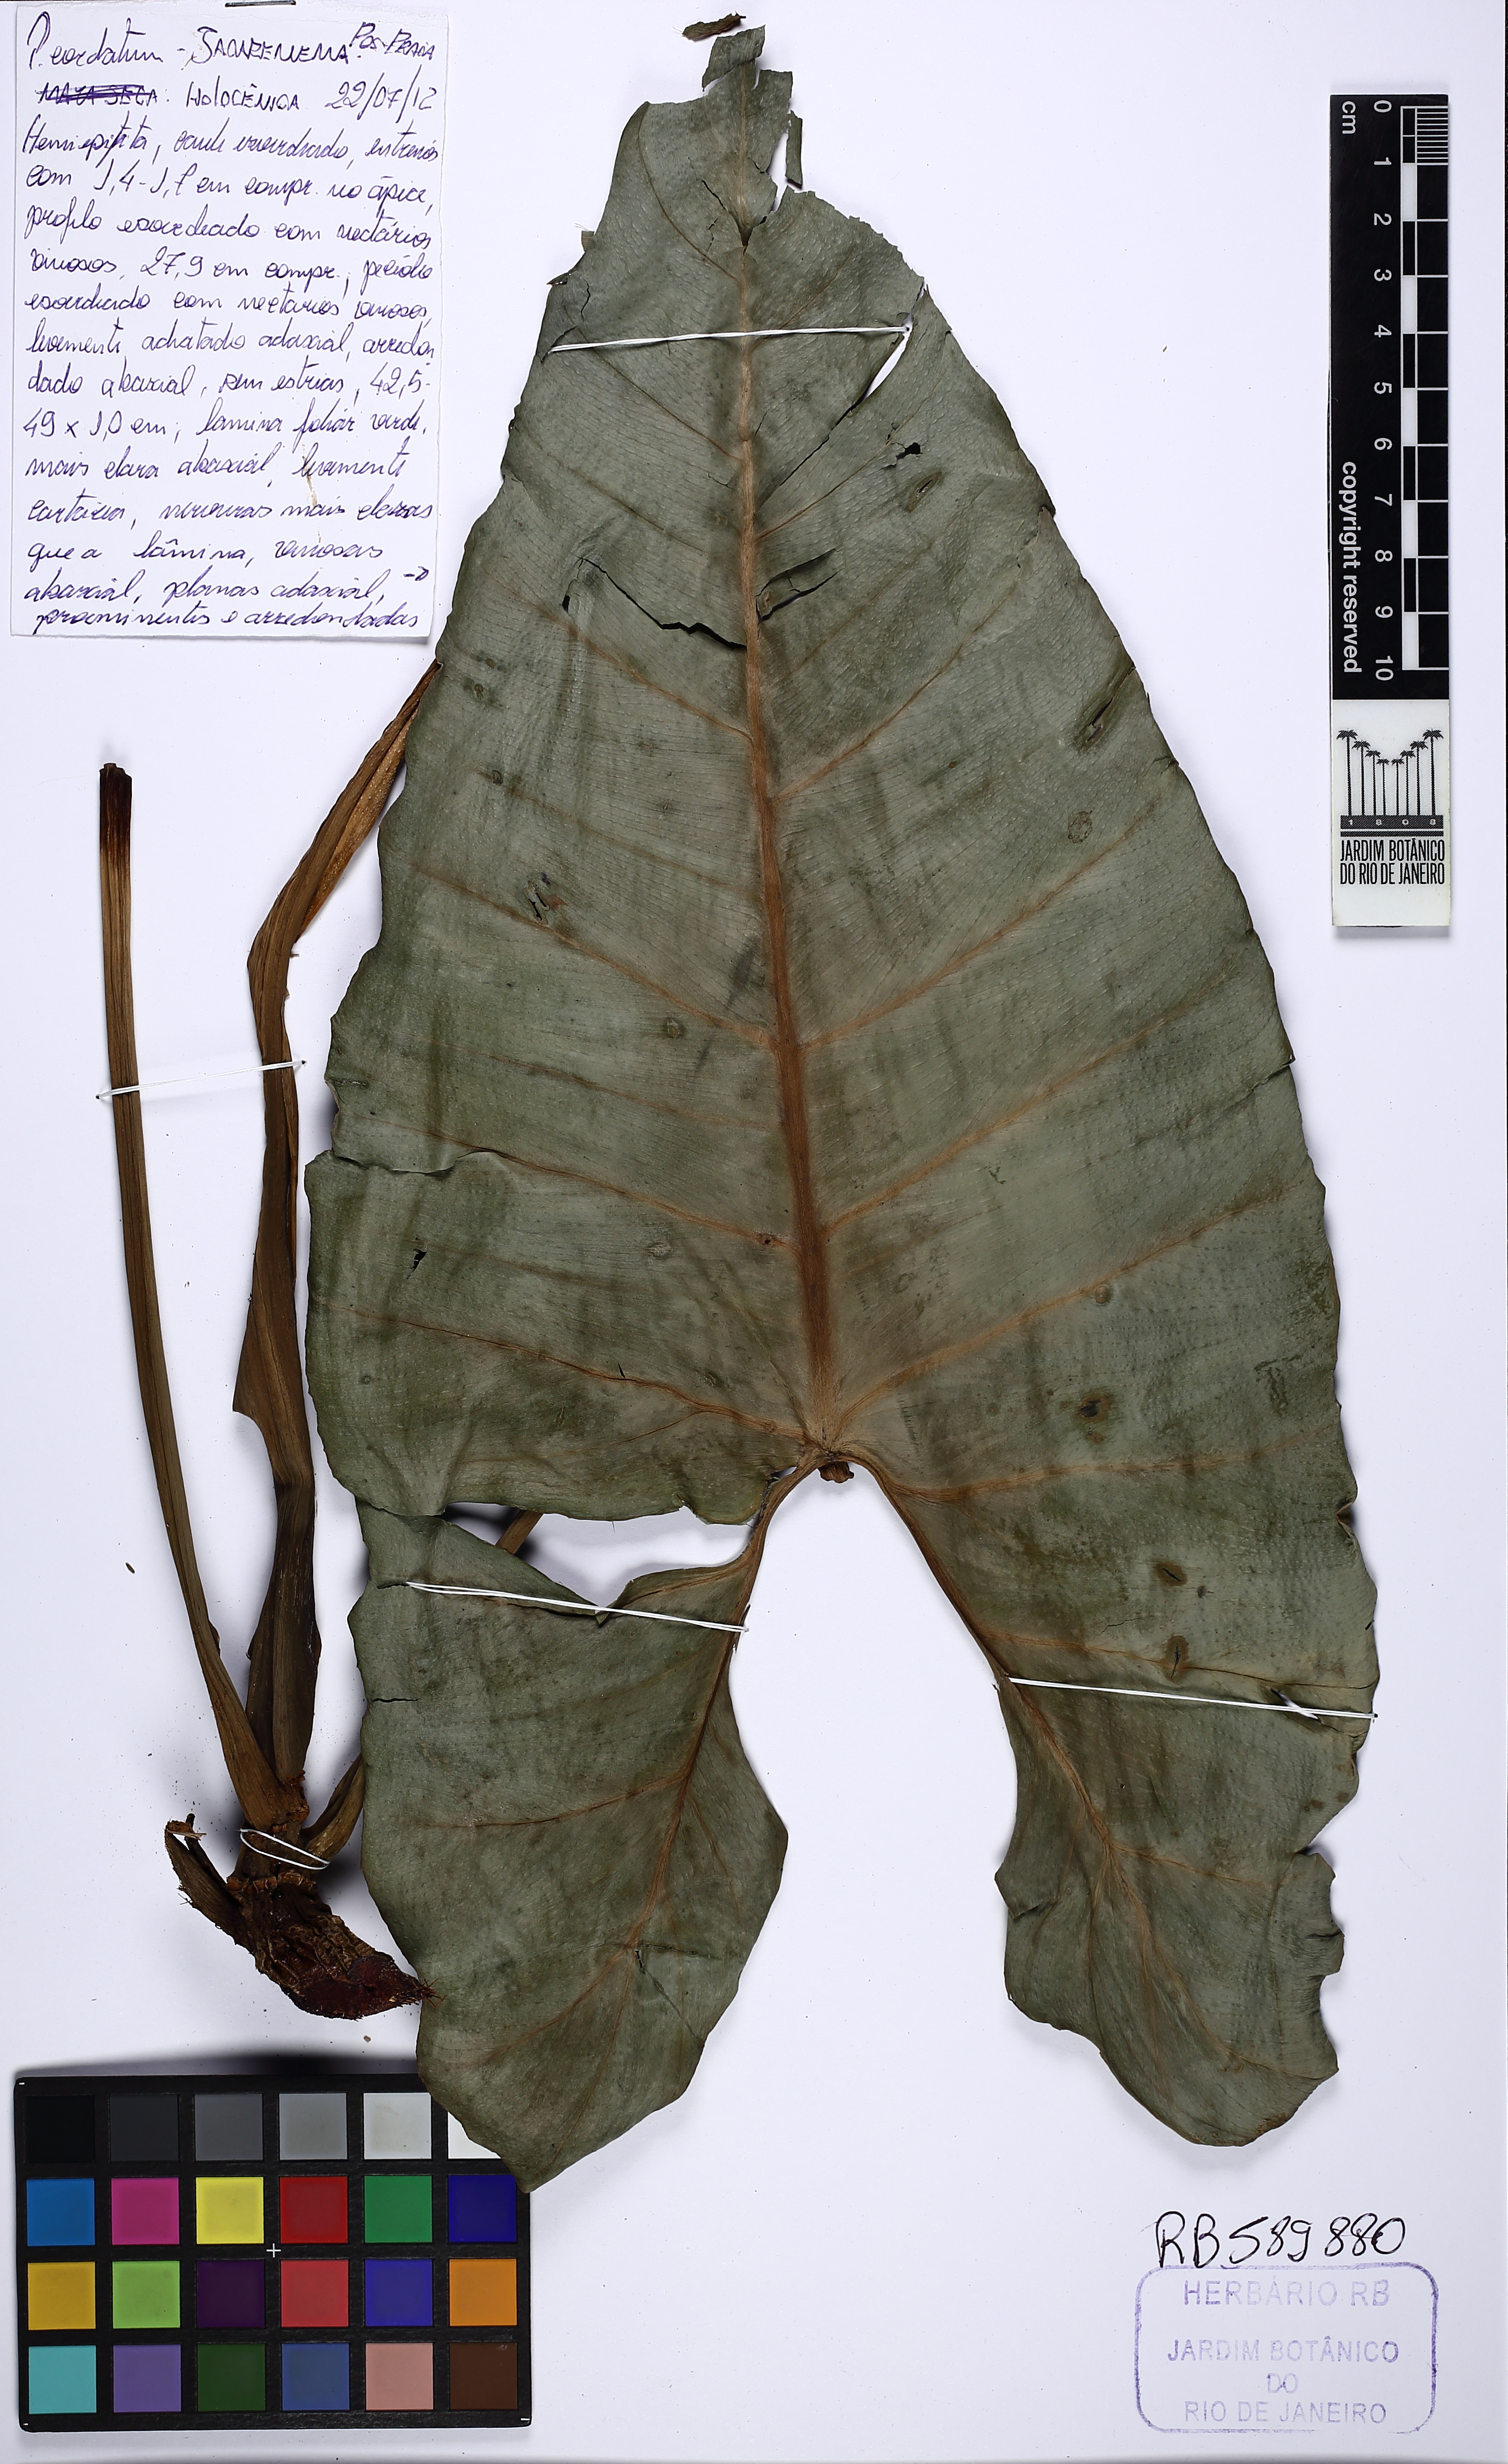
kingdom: Plantae
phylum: Tracheophyta
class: Liliopsida
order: Alismatales
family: Araceae
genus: Philodendron
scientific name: Philodendron cordatum
